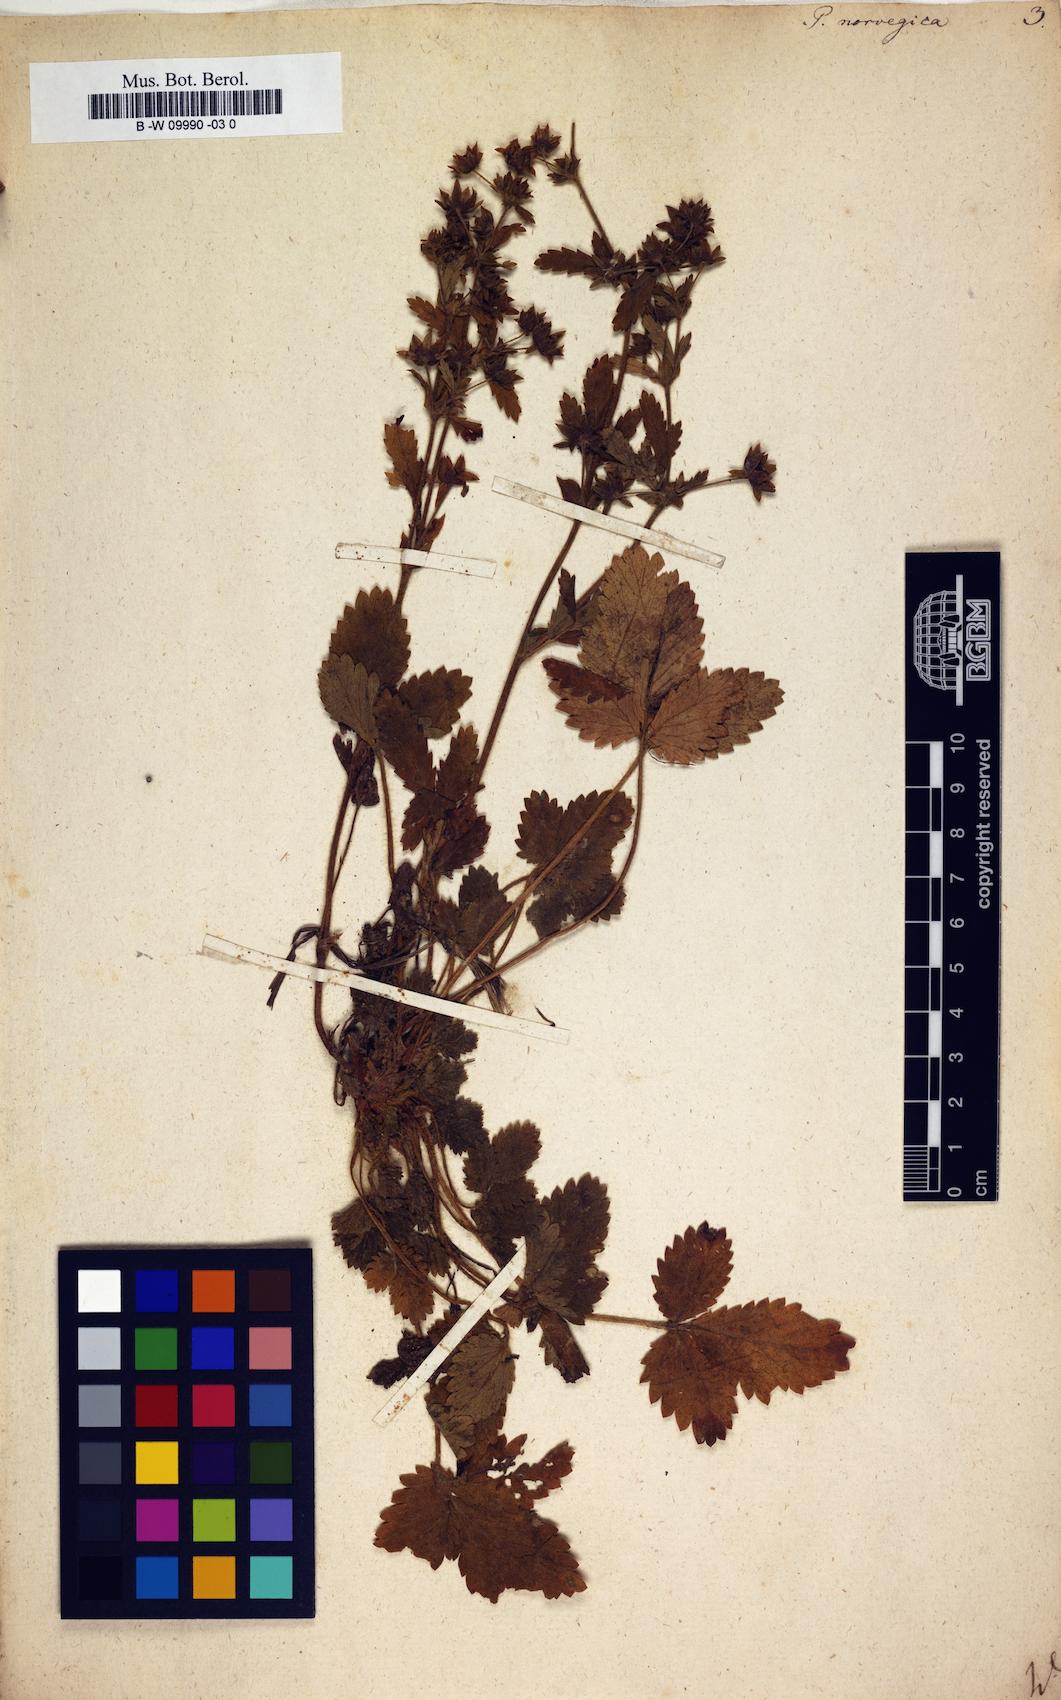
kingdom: Plantae
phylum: Tracheophyta
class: Magnoliopsida
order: Rosales
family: Rosaceae
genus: Potentilla
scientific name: Potentilla norvegica
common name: Ternate-leaved cinquefoil
